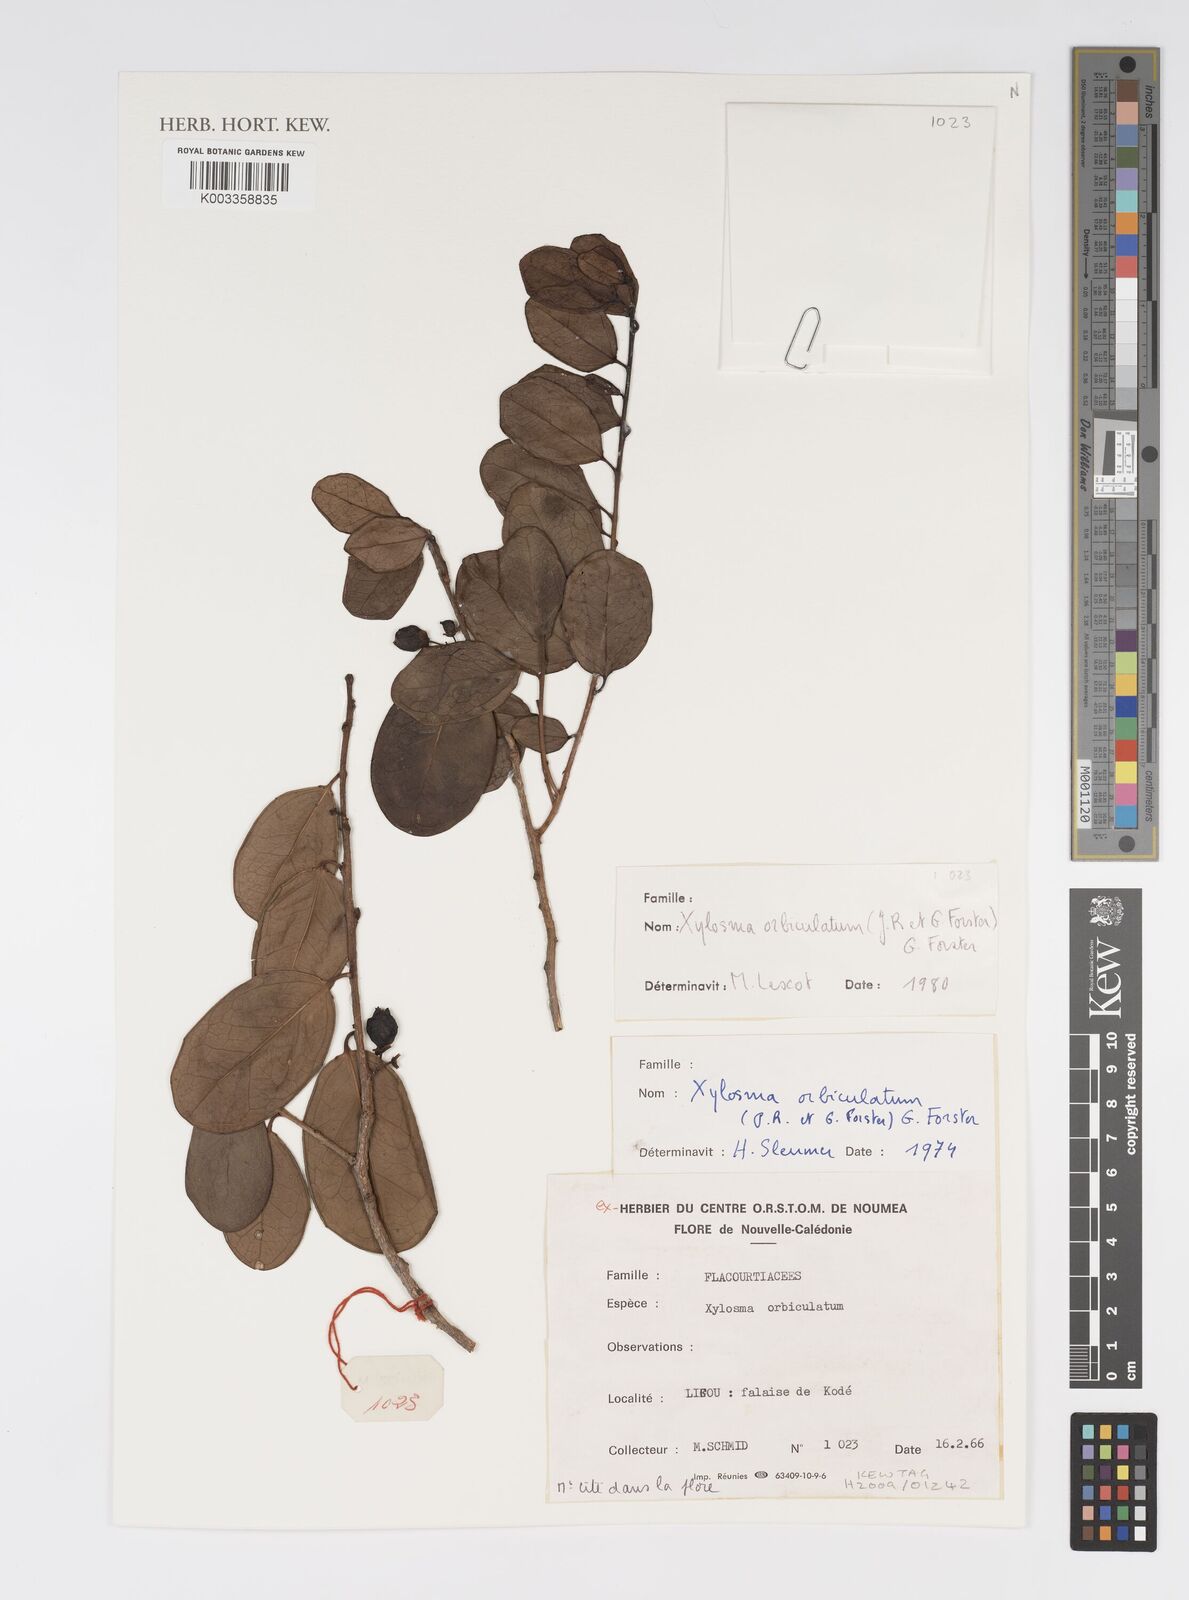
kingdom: Plantae
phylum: Tracheophyta
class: Magnoliopsida
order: Malpighiales
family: Salicaceae
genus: Xylosma
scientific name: Xylosma
